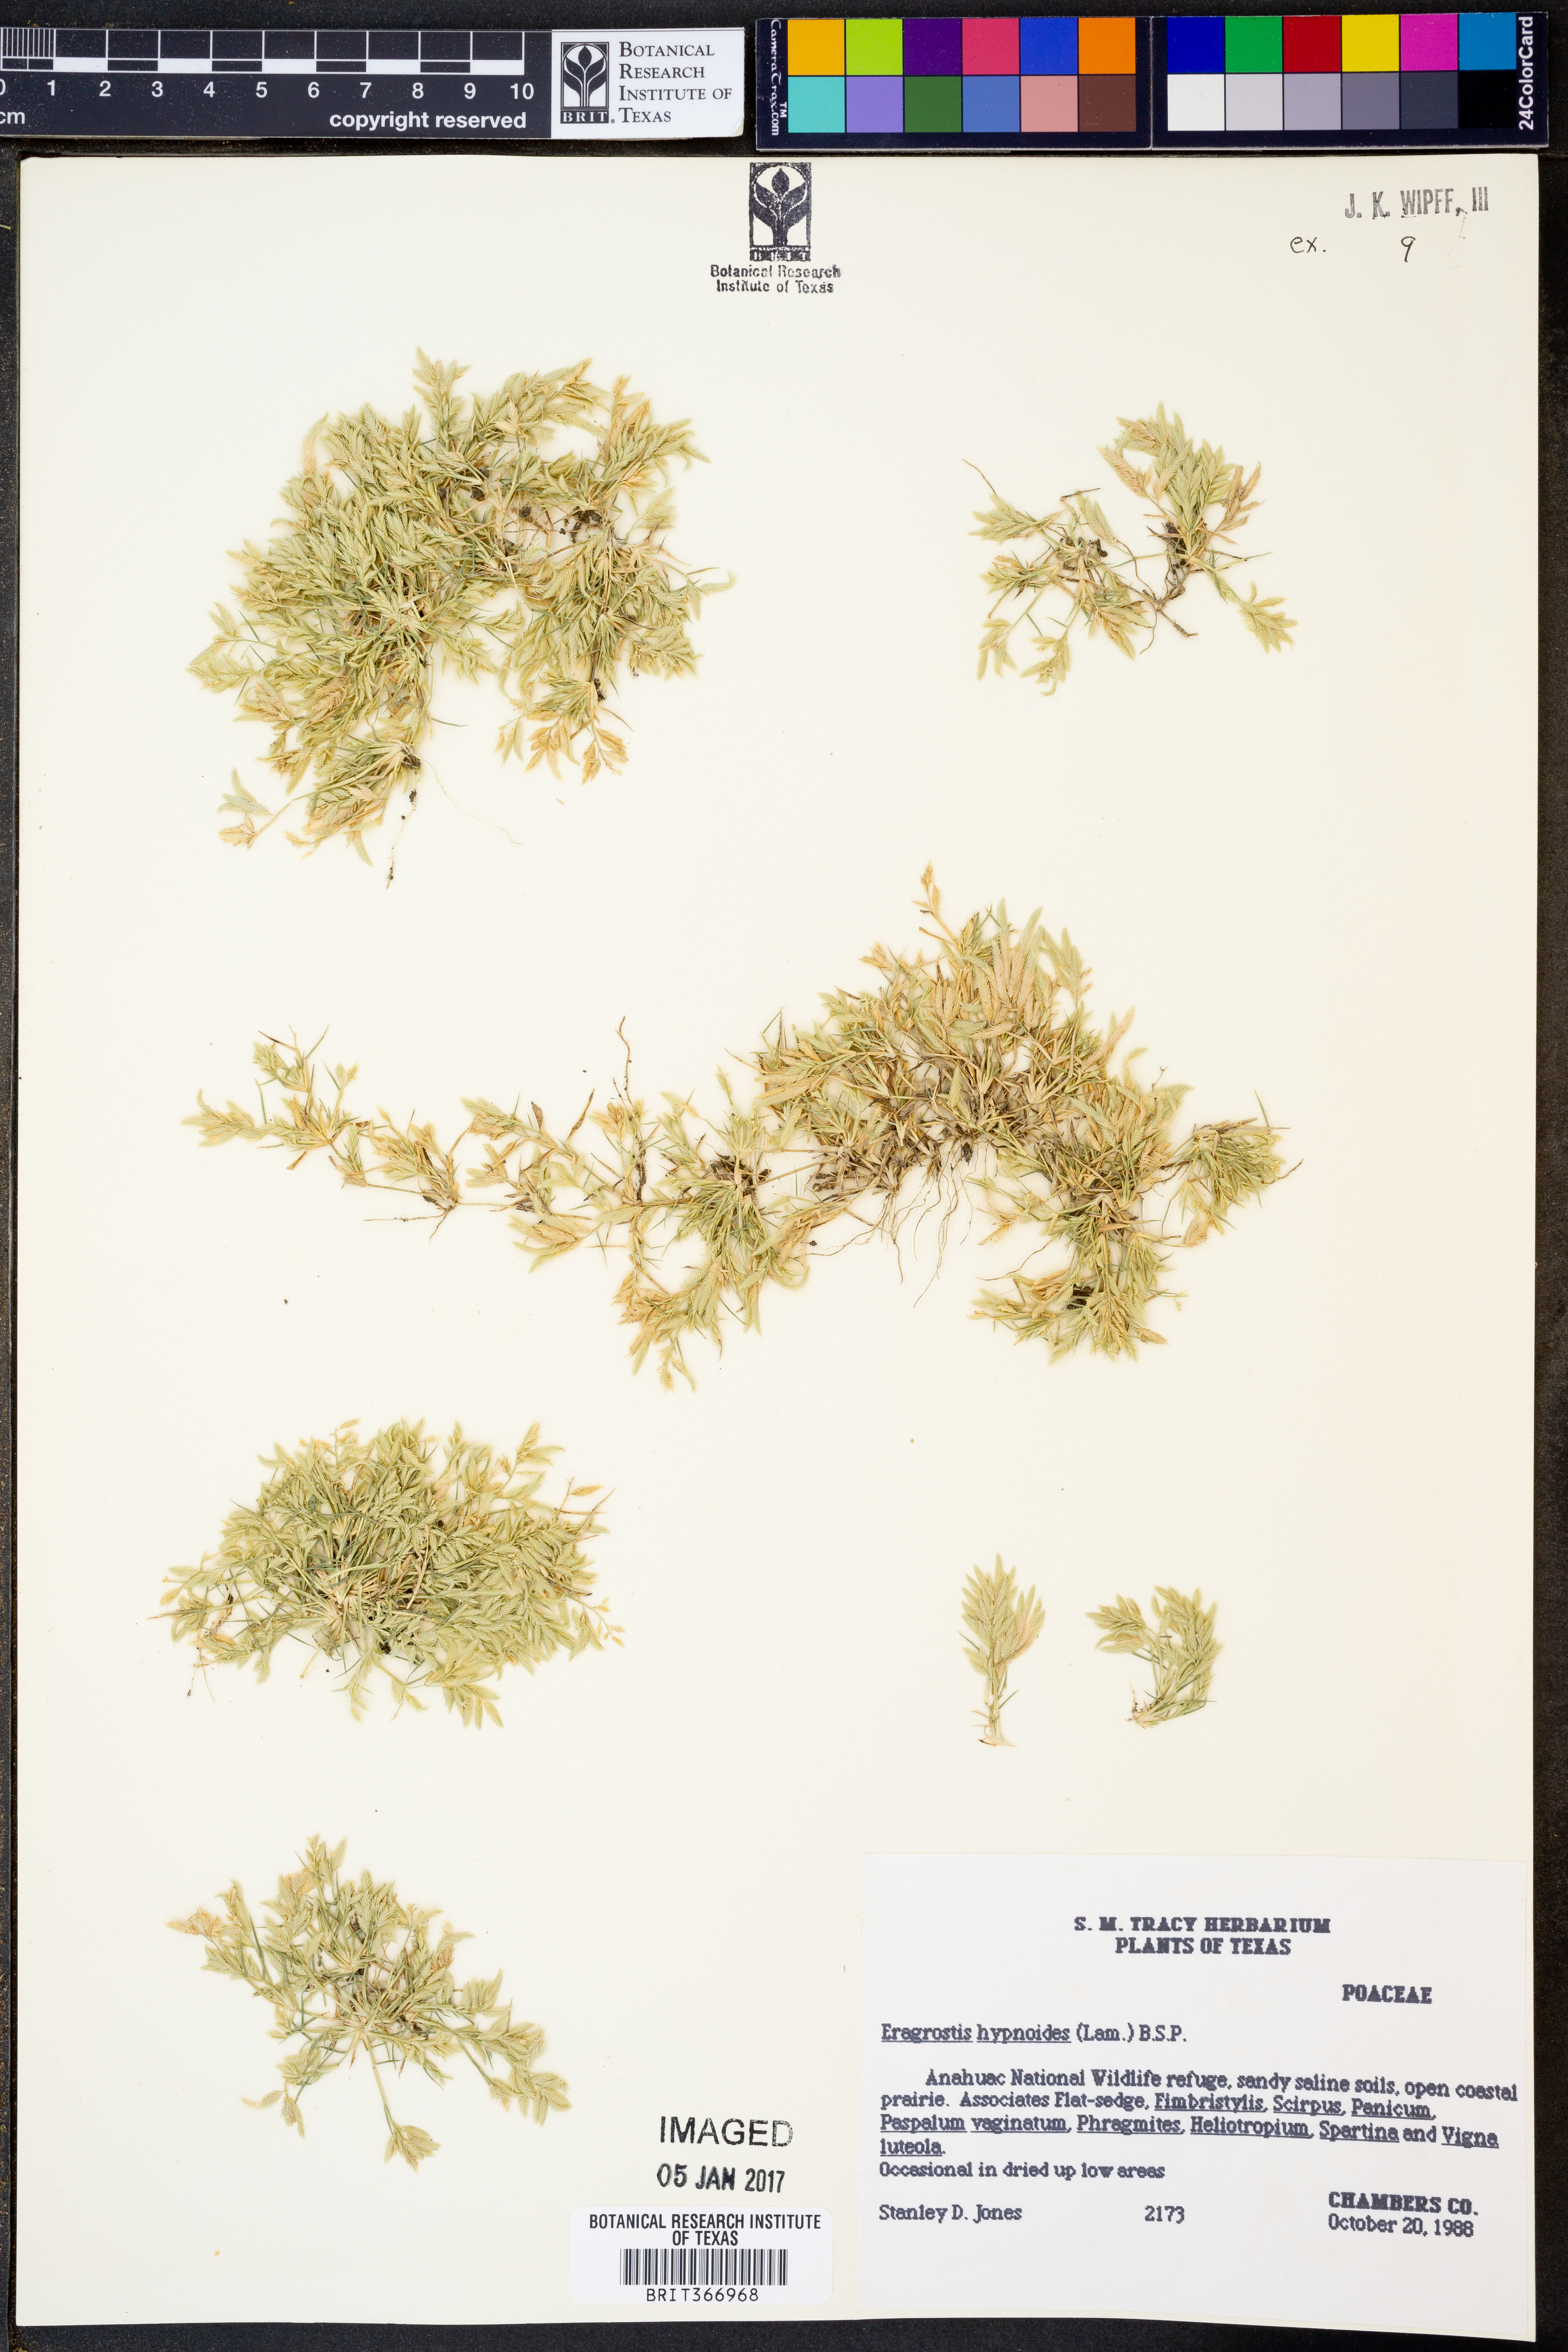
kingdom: Plantae
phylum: Tracheophyta
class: Liliopsida
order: Poales
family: Poaceae
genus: Eragrostis
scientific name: Eragrostis hypnoides
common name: Creeping love grass
